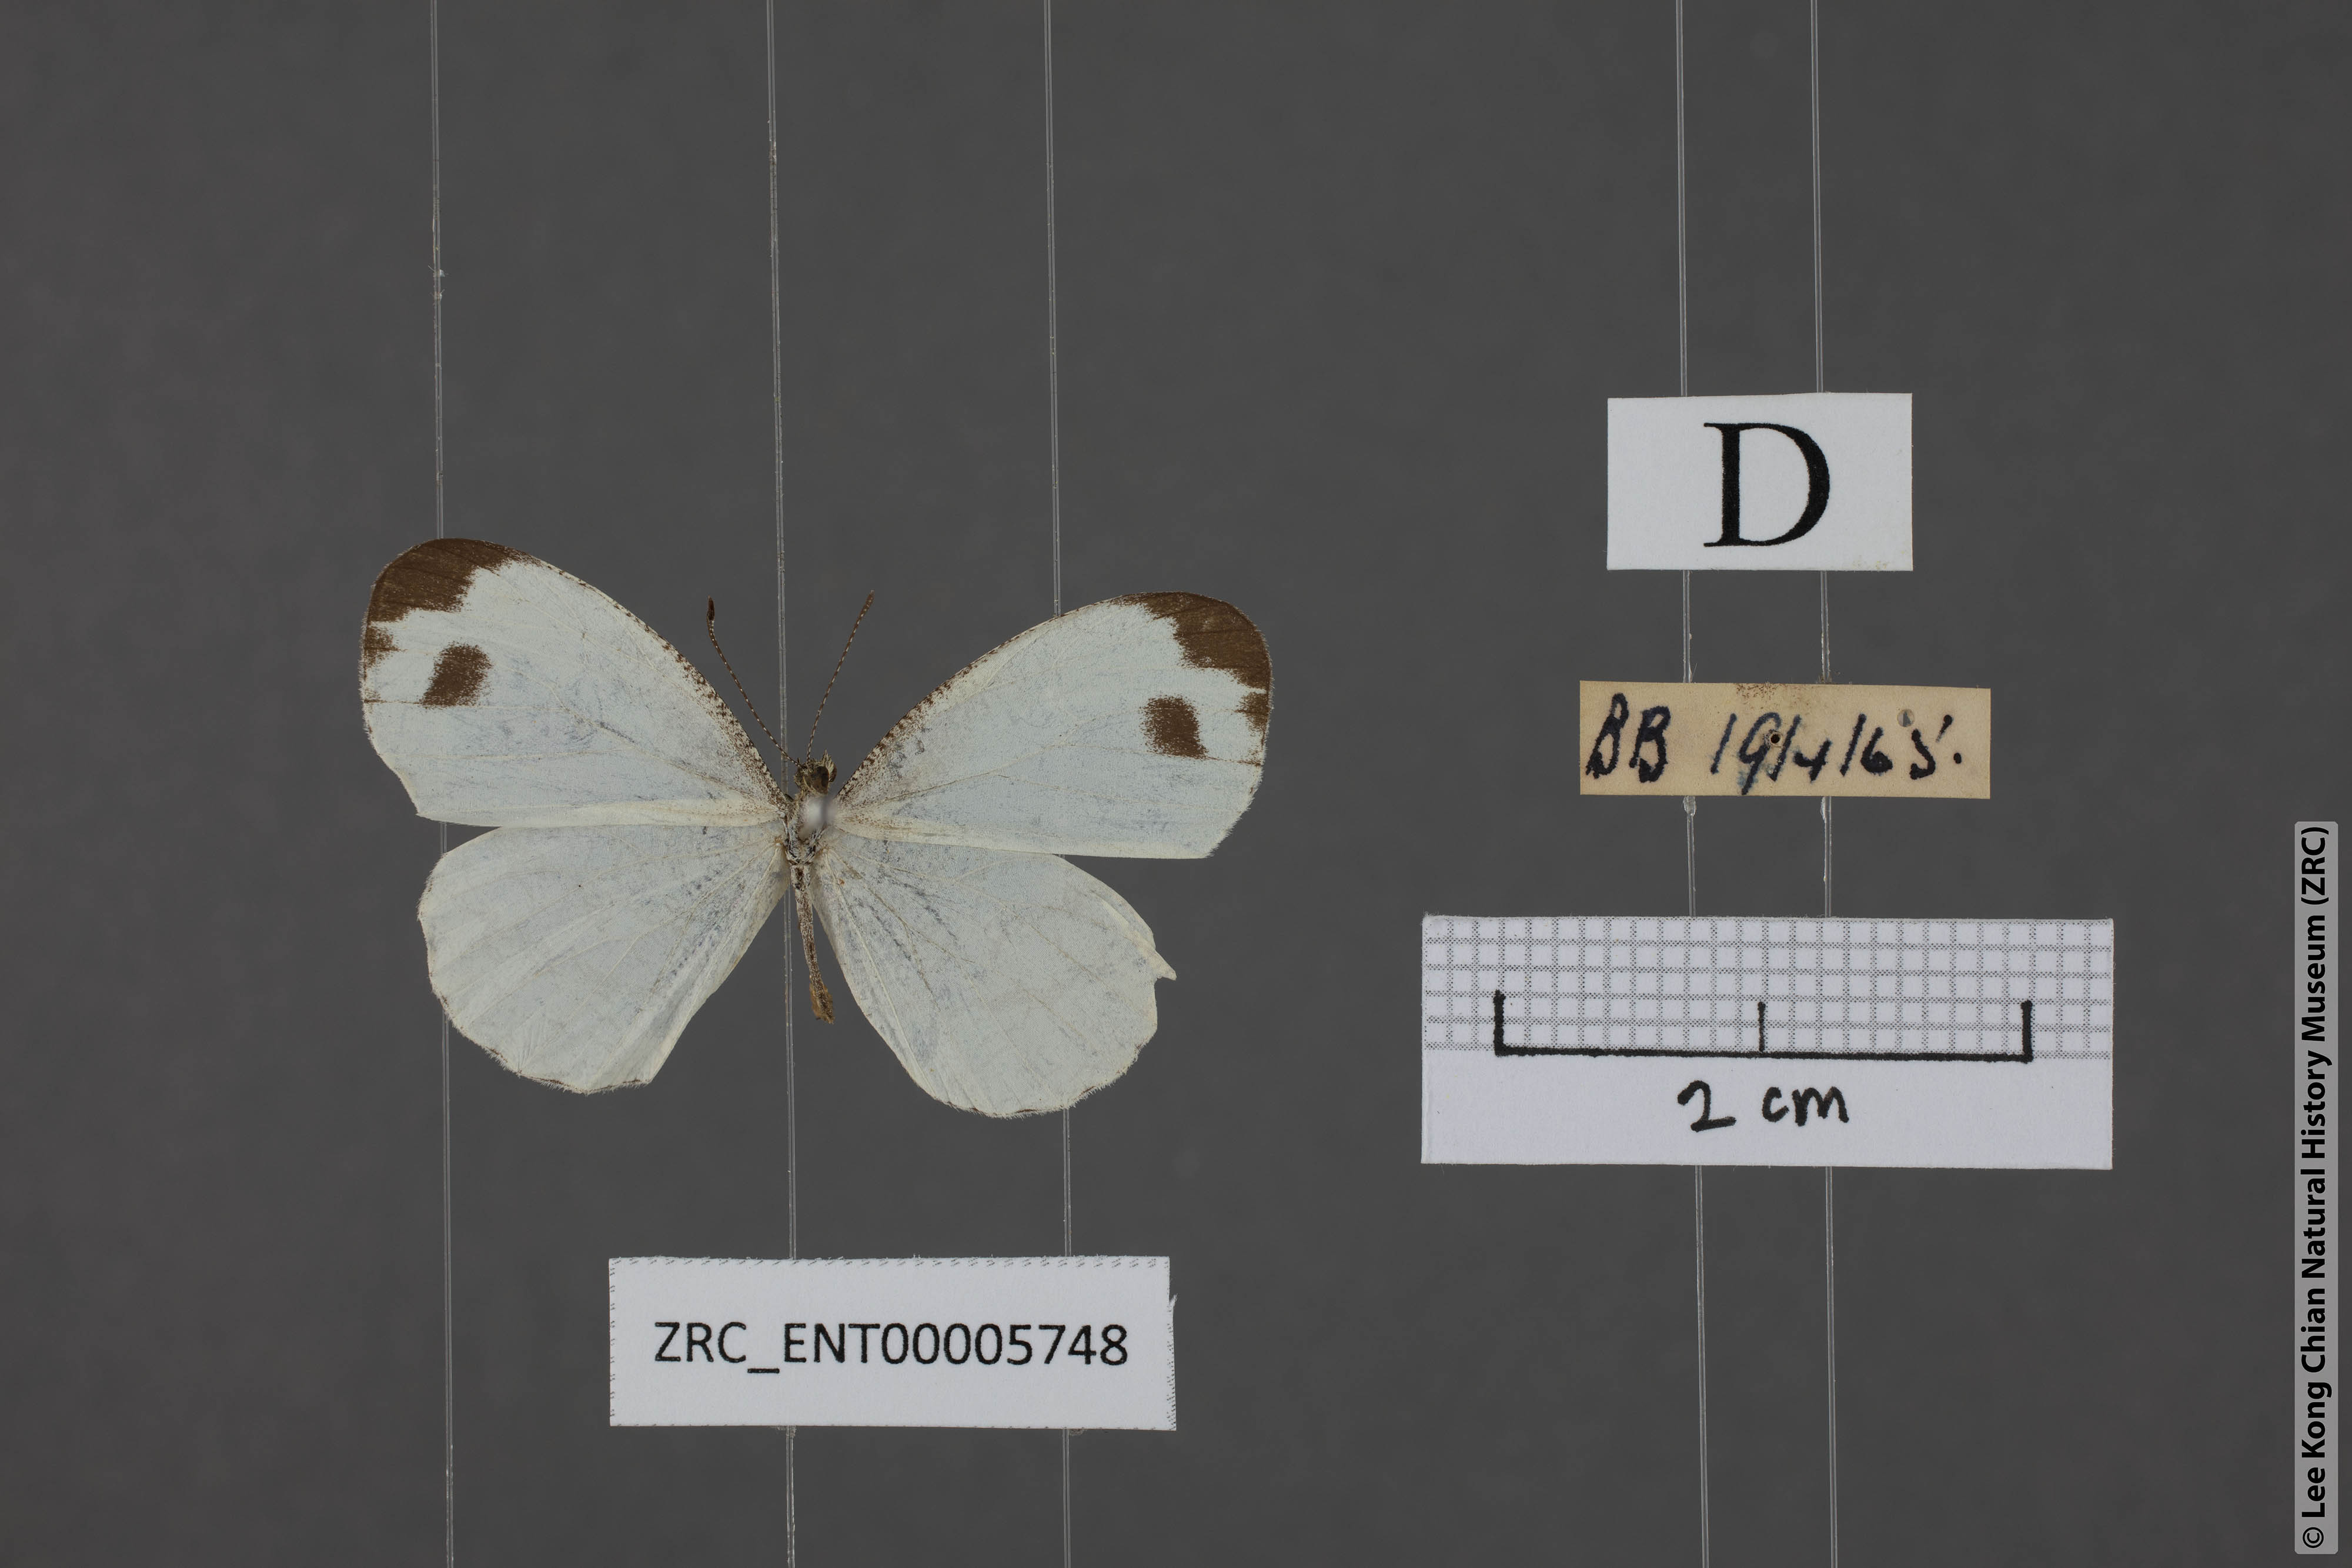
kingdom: Animalia
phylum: Arthropoda
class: Insecta
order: Lepidoptera
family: Pieridae
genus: Leptosia
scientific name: Leptosia nina
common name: Psyche
